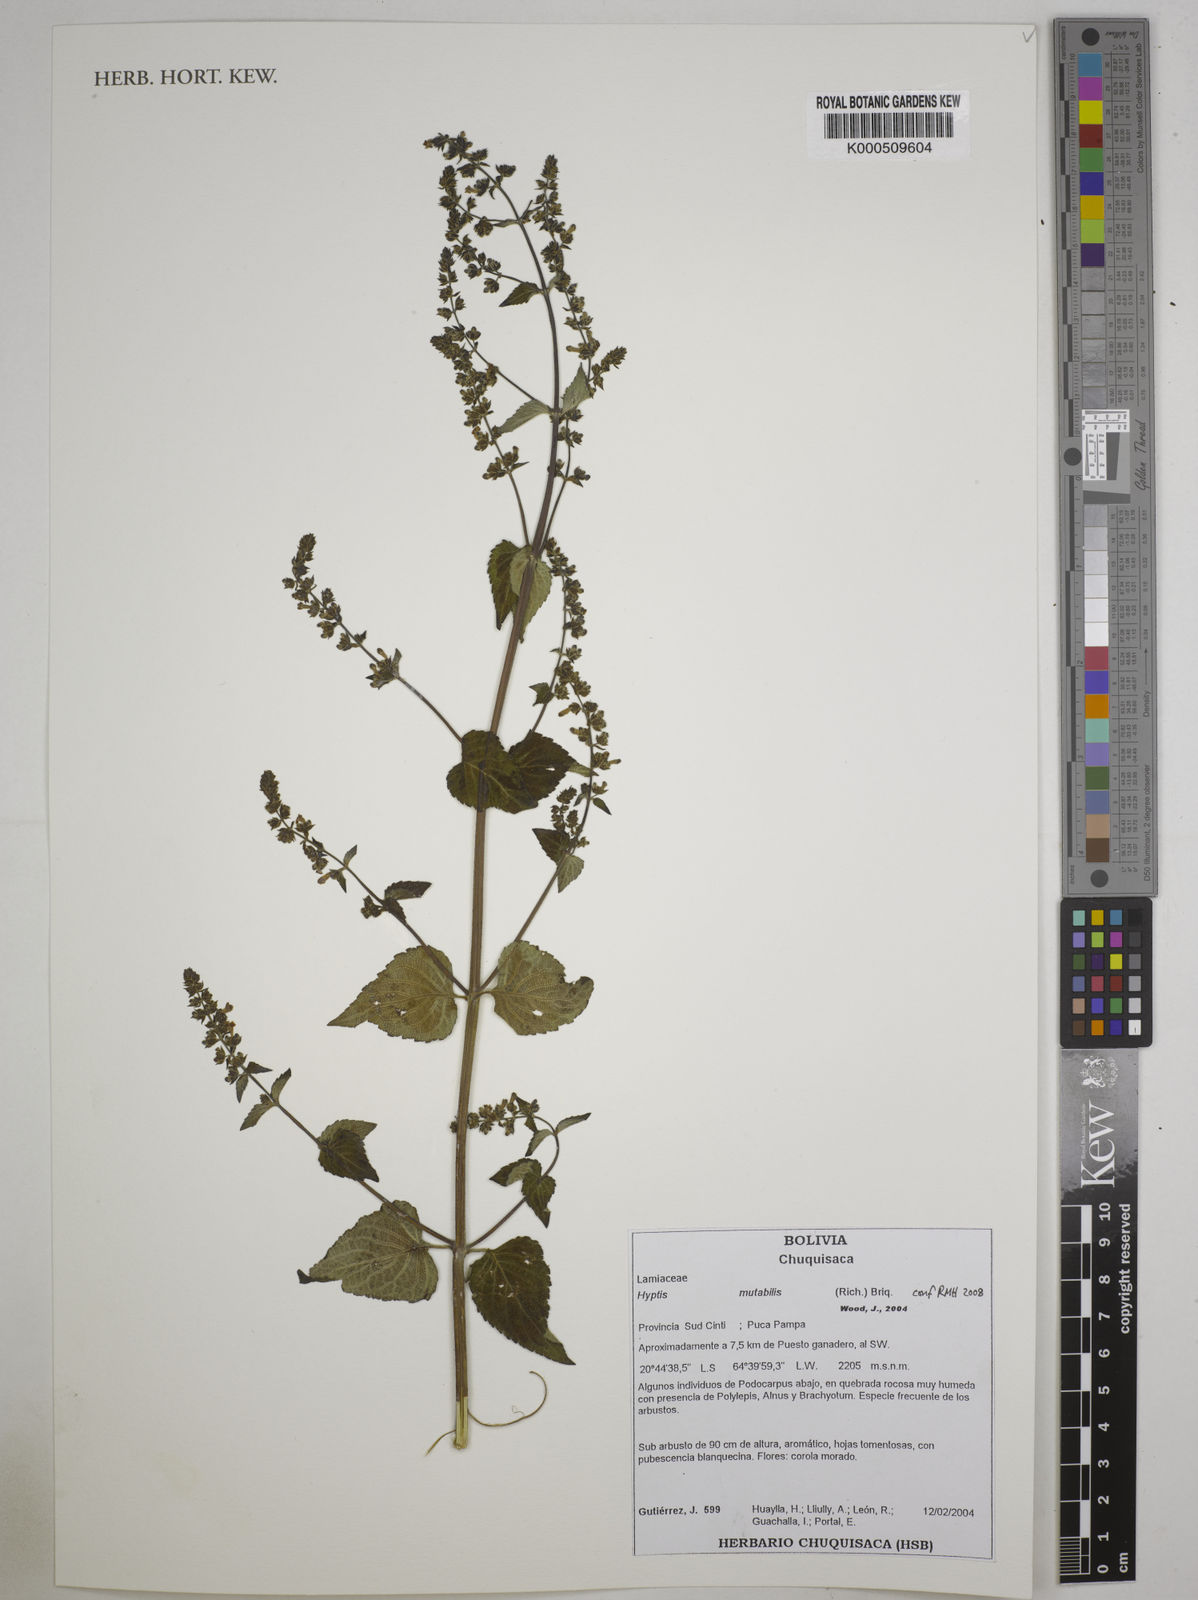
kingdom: Plantae
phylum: Tracheophyta
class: Magnoliopsida
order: Lamiales
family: Lamiaceae
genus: Cantinoa
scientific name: Cantinoa mutabilis
